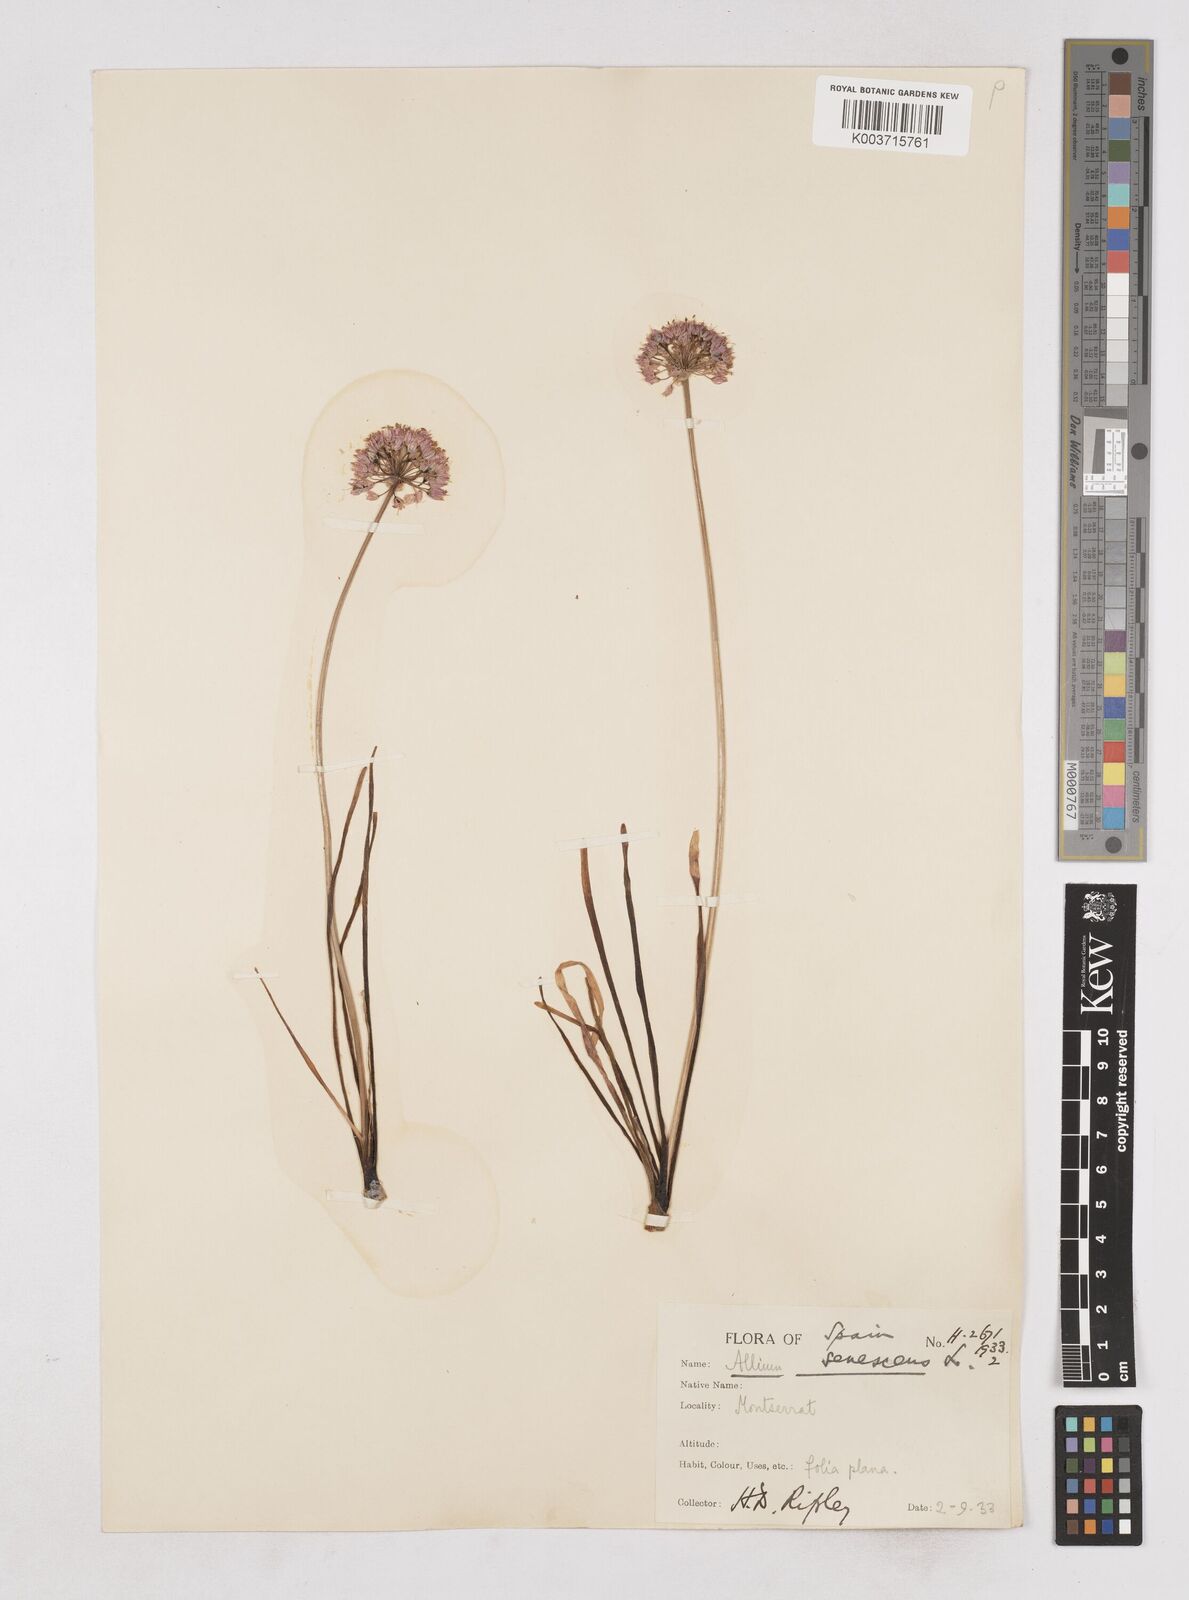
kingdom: Plantae
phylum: Tracheophyta
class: Liliopsida
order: Asparagales
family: Amaryllidaceae
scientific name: Amaryllidaceae
